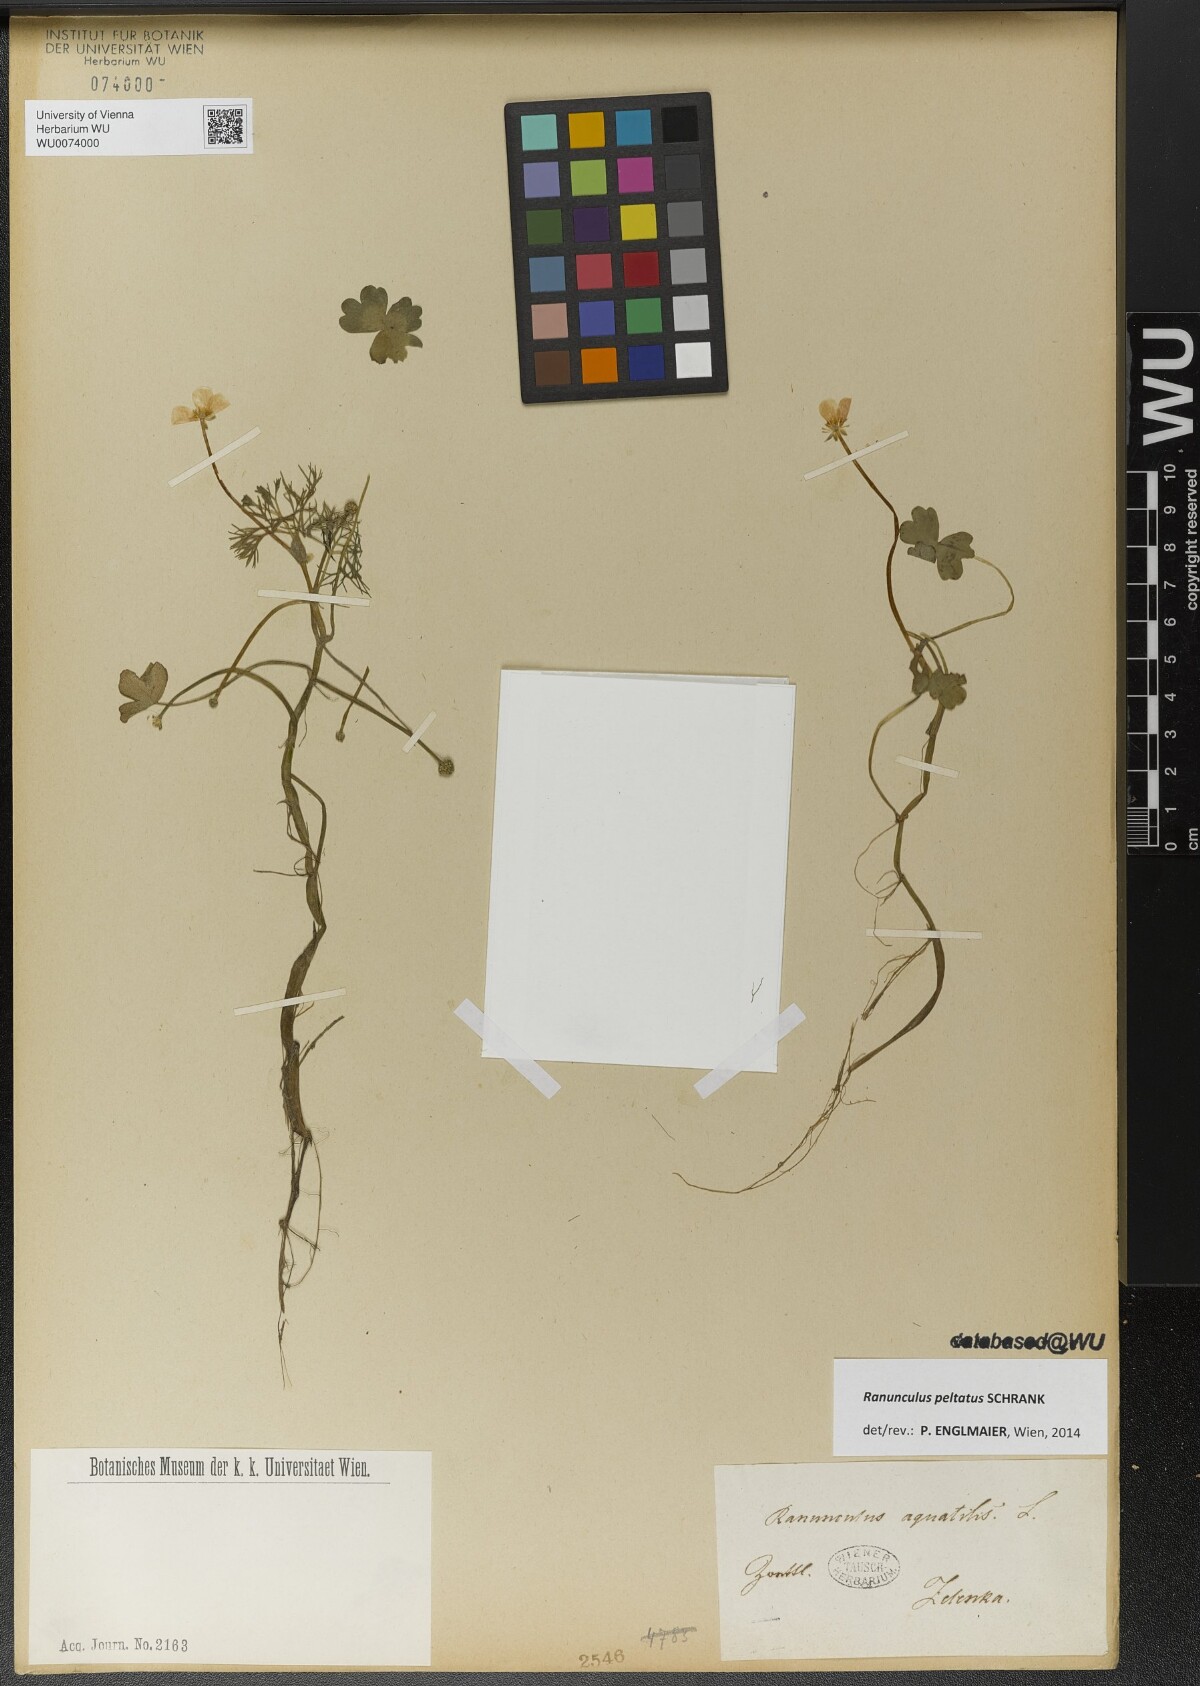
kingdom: Plantae
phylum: Tracheophyta
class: Magnoliopsida
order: Ranunculales
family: Ranunculaceae
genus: Ranunculus
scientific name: Ranunculus peltatus
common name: Pond water-crowfoot
